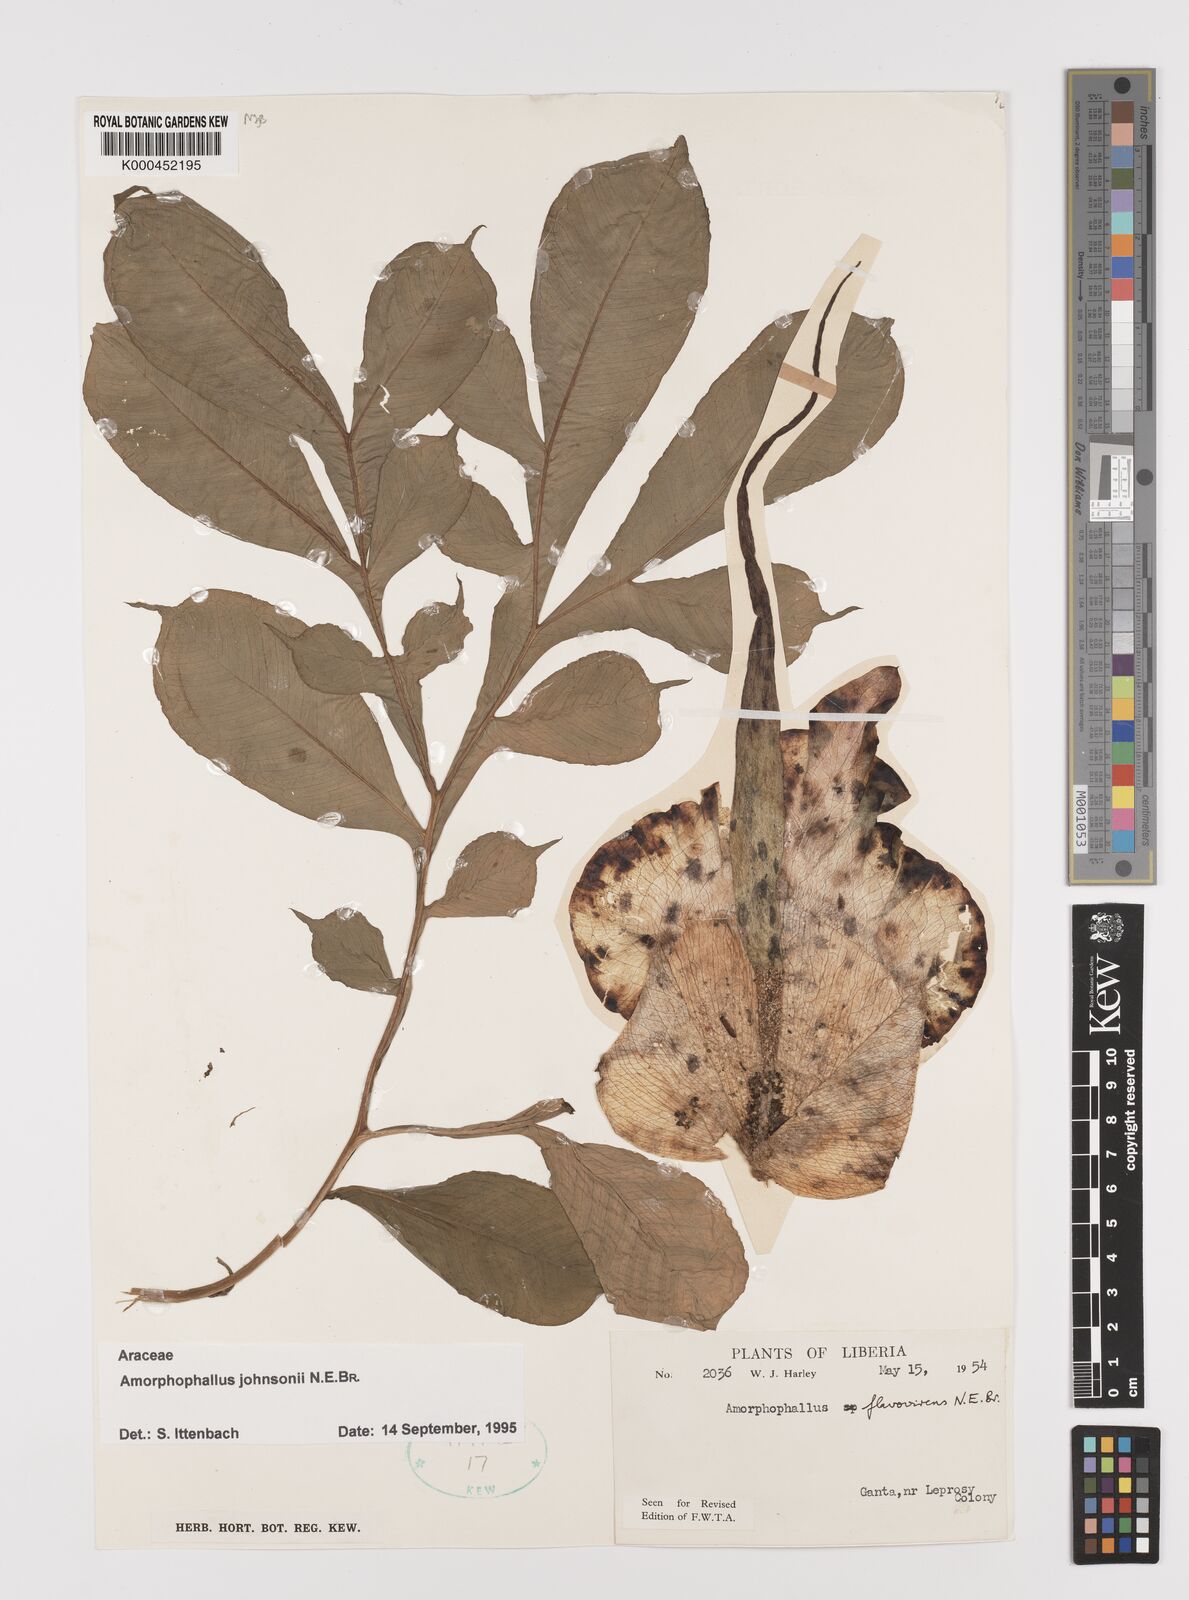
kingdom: Plantae
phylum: Tracheophyta
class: Liliopsida
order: Alismatales
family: Araceae
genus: Amorphophallus
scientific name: Amorphophallus johnsonii
